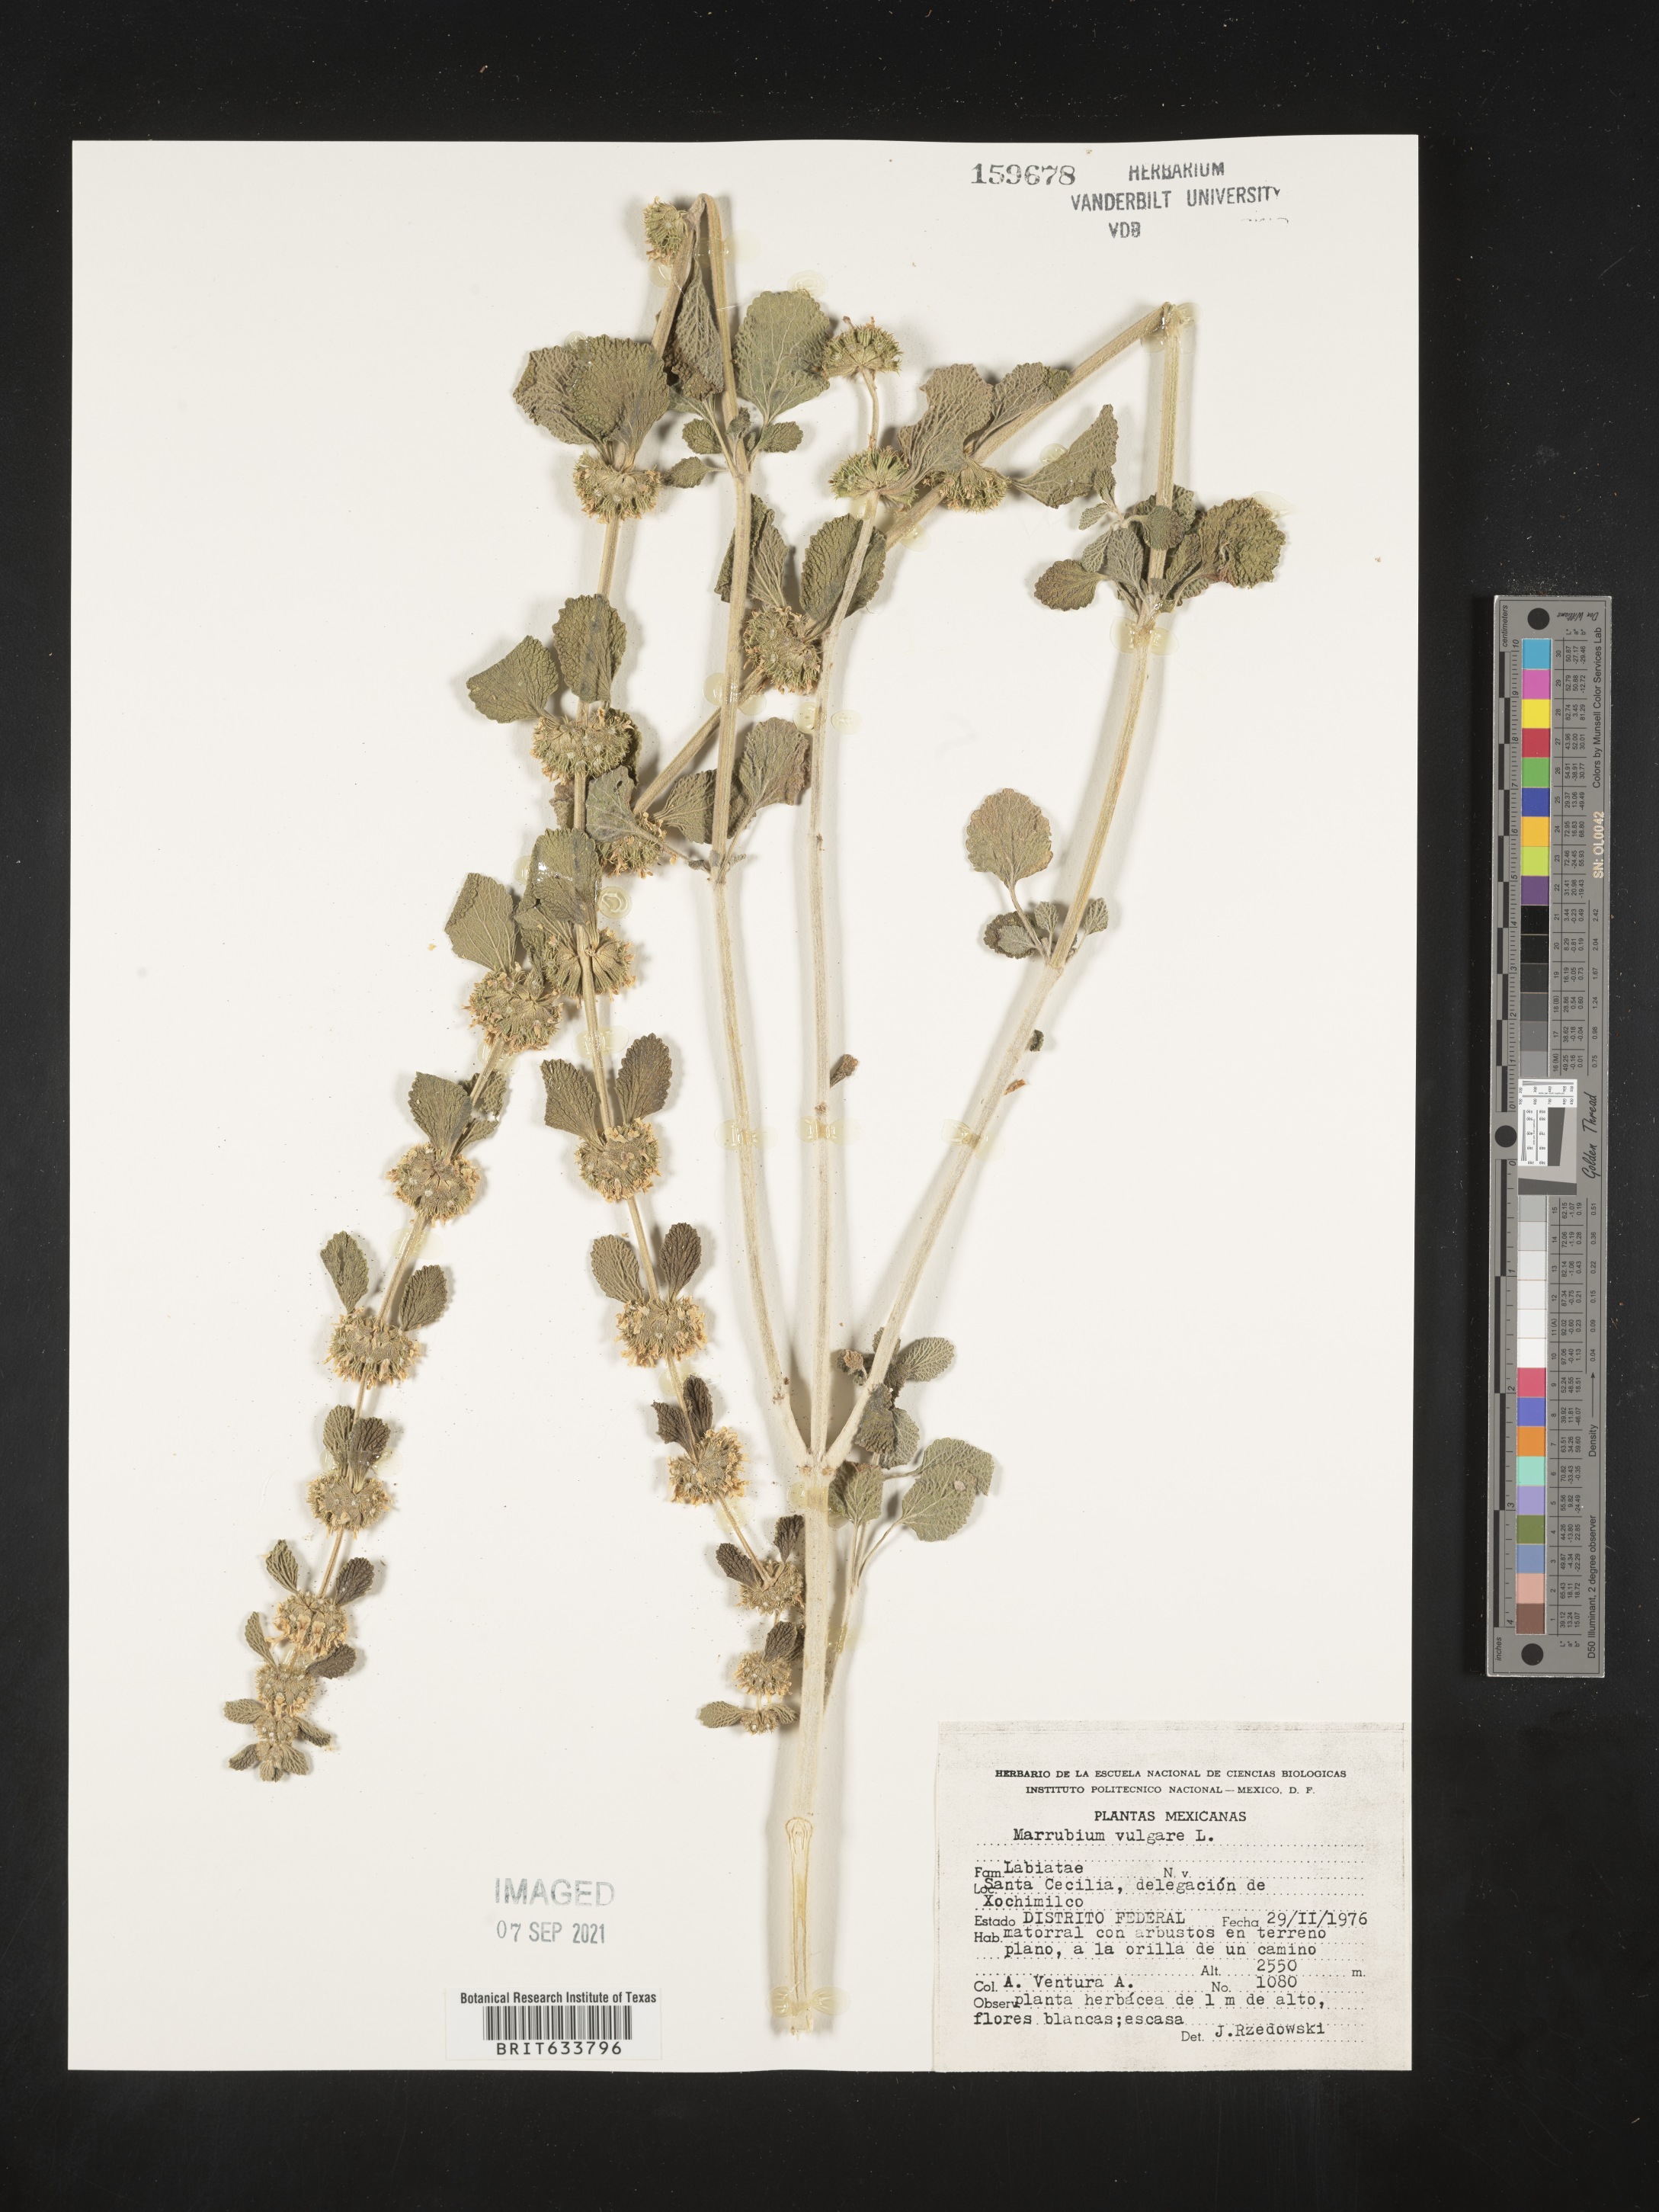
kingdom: Plantae
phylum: Tracheophyta
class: Magnoliopsida
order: Lamiales
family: Lamiaceae
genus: Marrubium
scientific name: Marrubium
